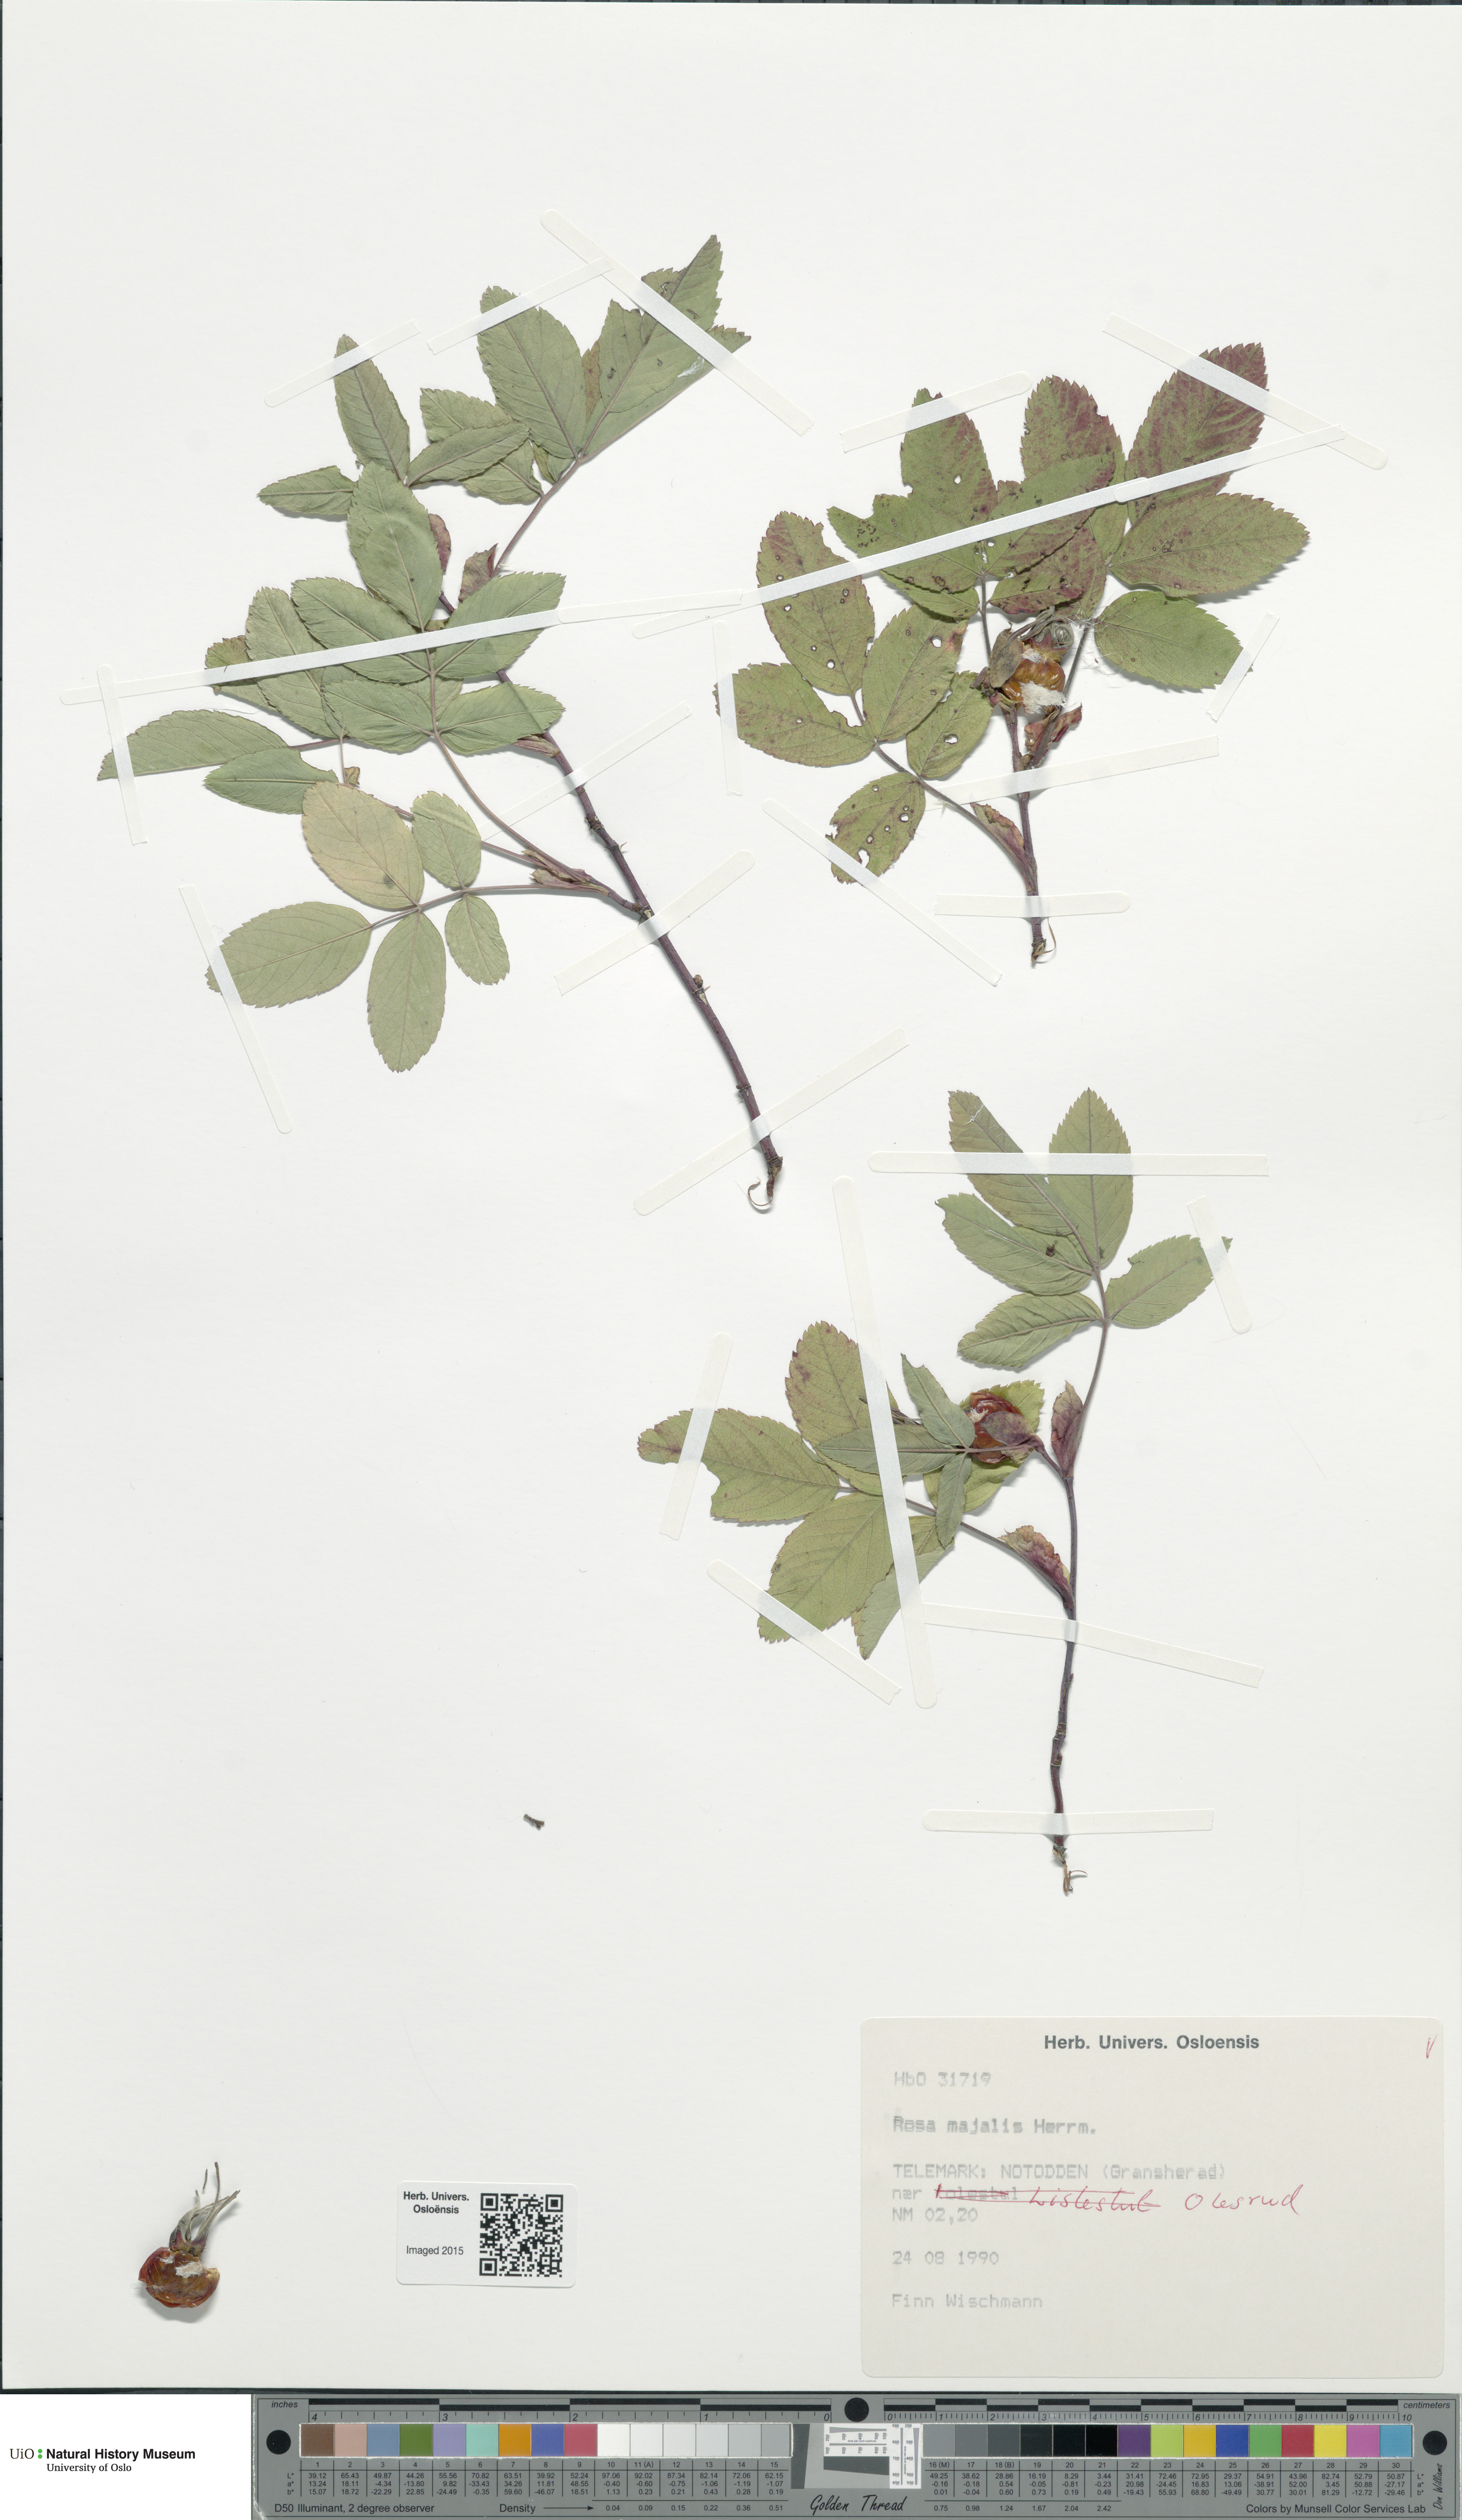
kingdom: Plantae
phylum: Tracheophyta
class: Magnoliopsida
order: Rosales
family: Rosaceae
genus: Rosa
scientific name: Rosa majalis
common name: Cinnamon rose
